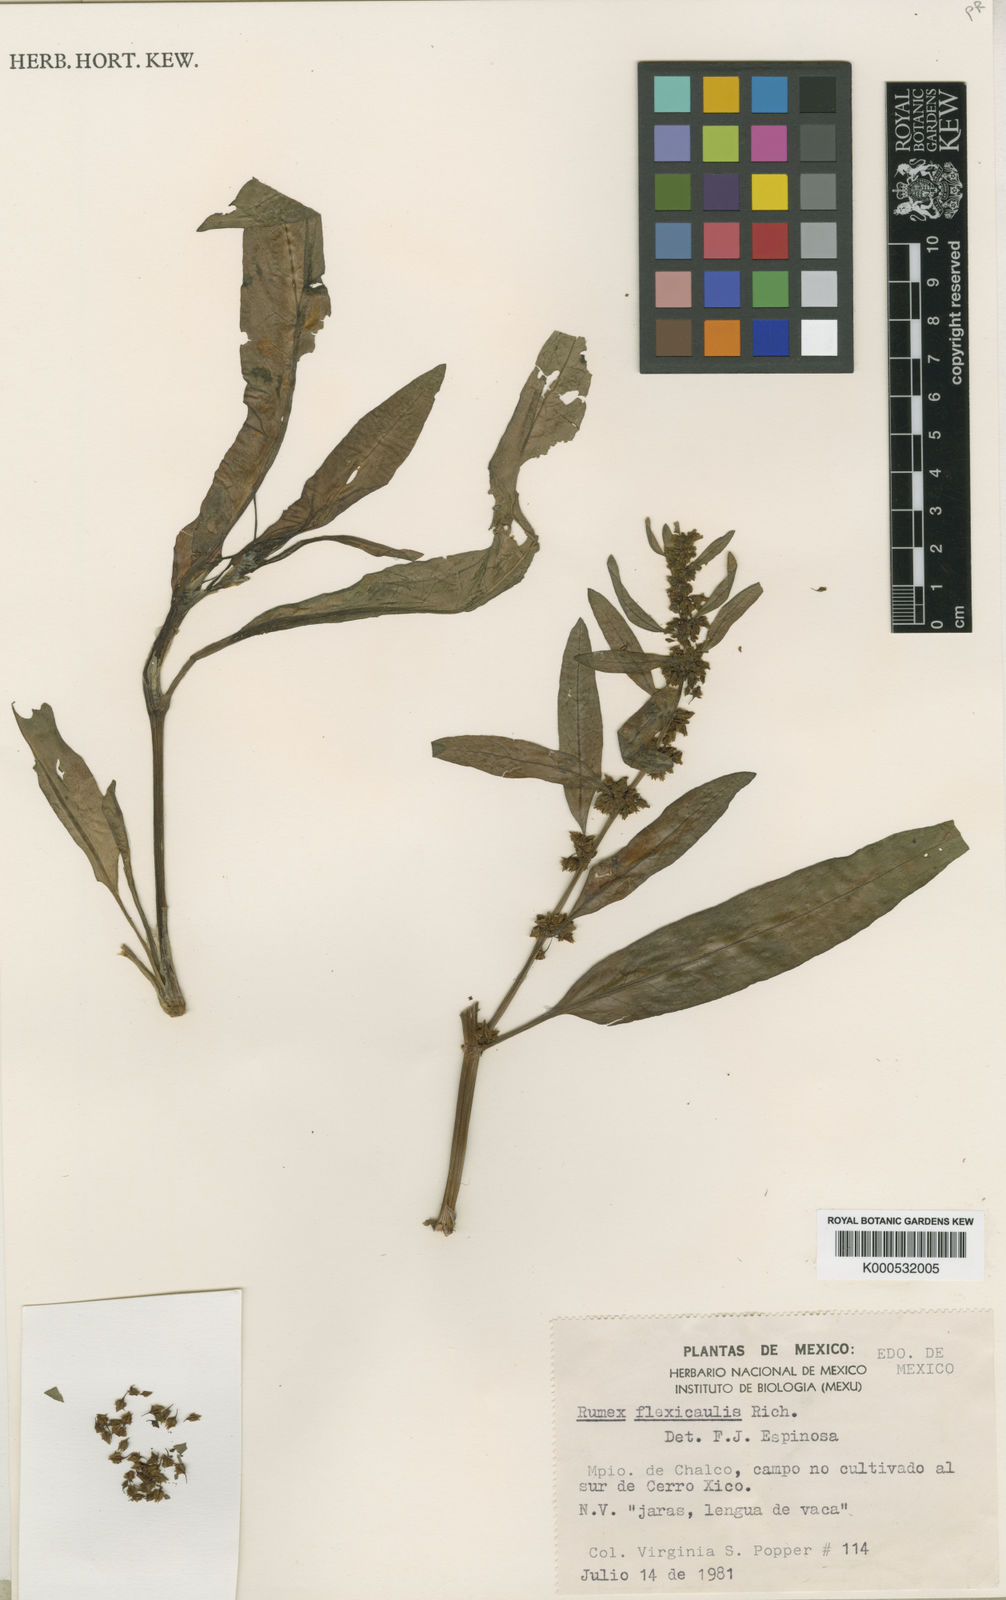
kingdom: Plantae
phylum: Tracheophyta
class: Magnoliopsida
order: Caryophyllales
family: Polygonaceae
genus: Rumex
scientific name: Rumex flexicaulis
